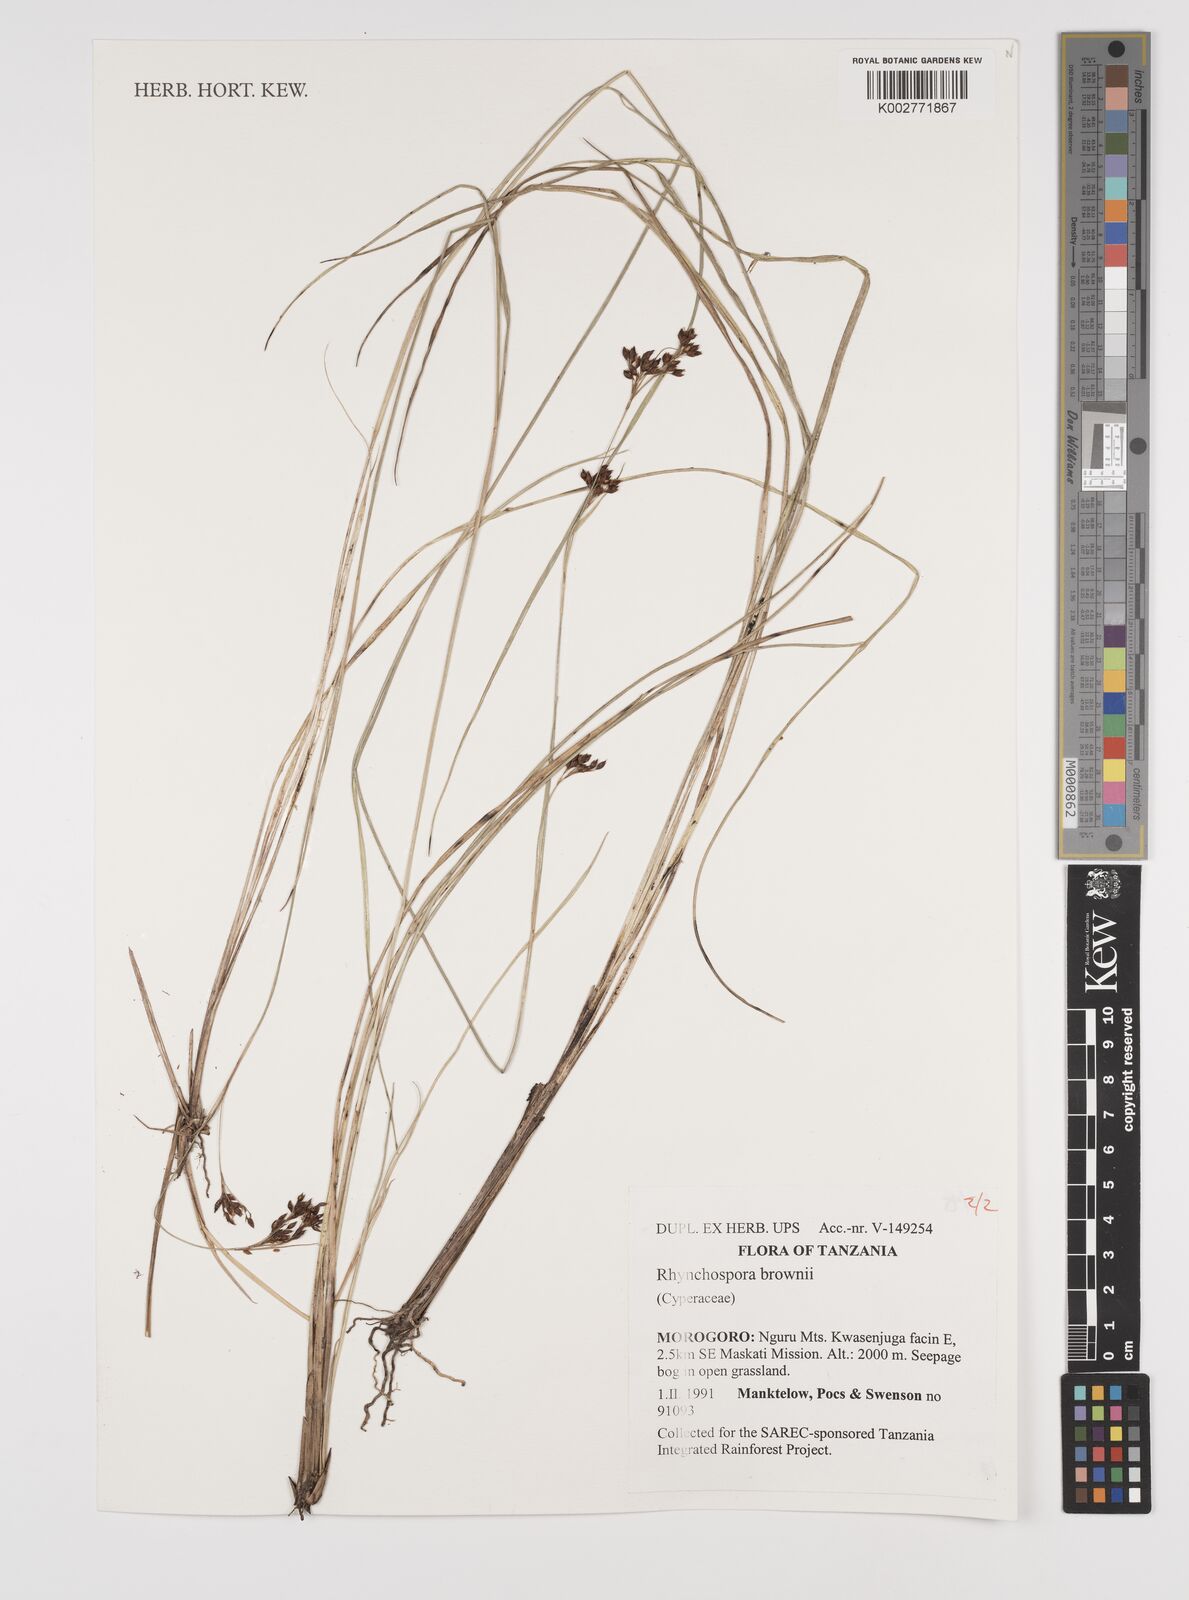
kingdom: Plantae
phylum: Tracheophyta
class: Liliopsida
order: Poales
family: Cyperaceae
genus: Rhynchospora
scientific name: Rhynchospora brownii
